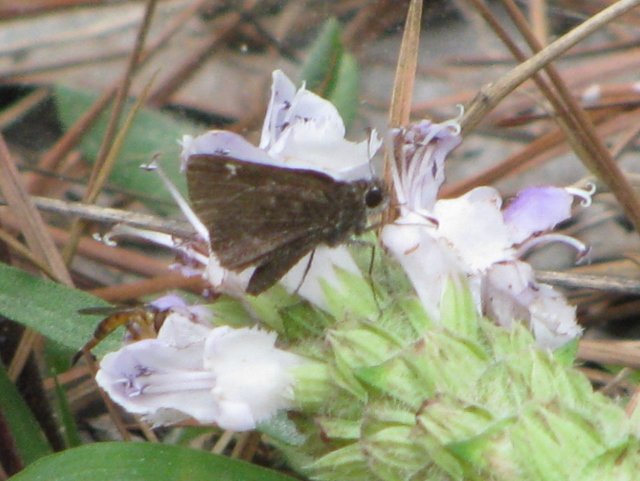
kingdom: Animalia
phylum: Arthropoda
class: Insecta
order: Lepidoptera
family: Hesperiidae
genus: Mastor
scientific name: Mastor vialis
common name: Common Roadside-Skipper
